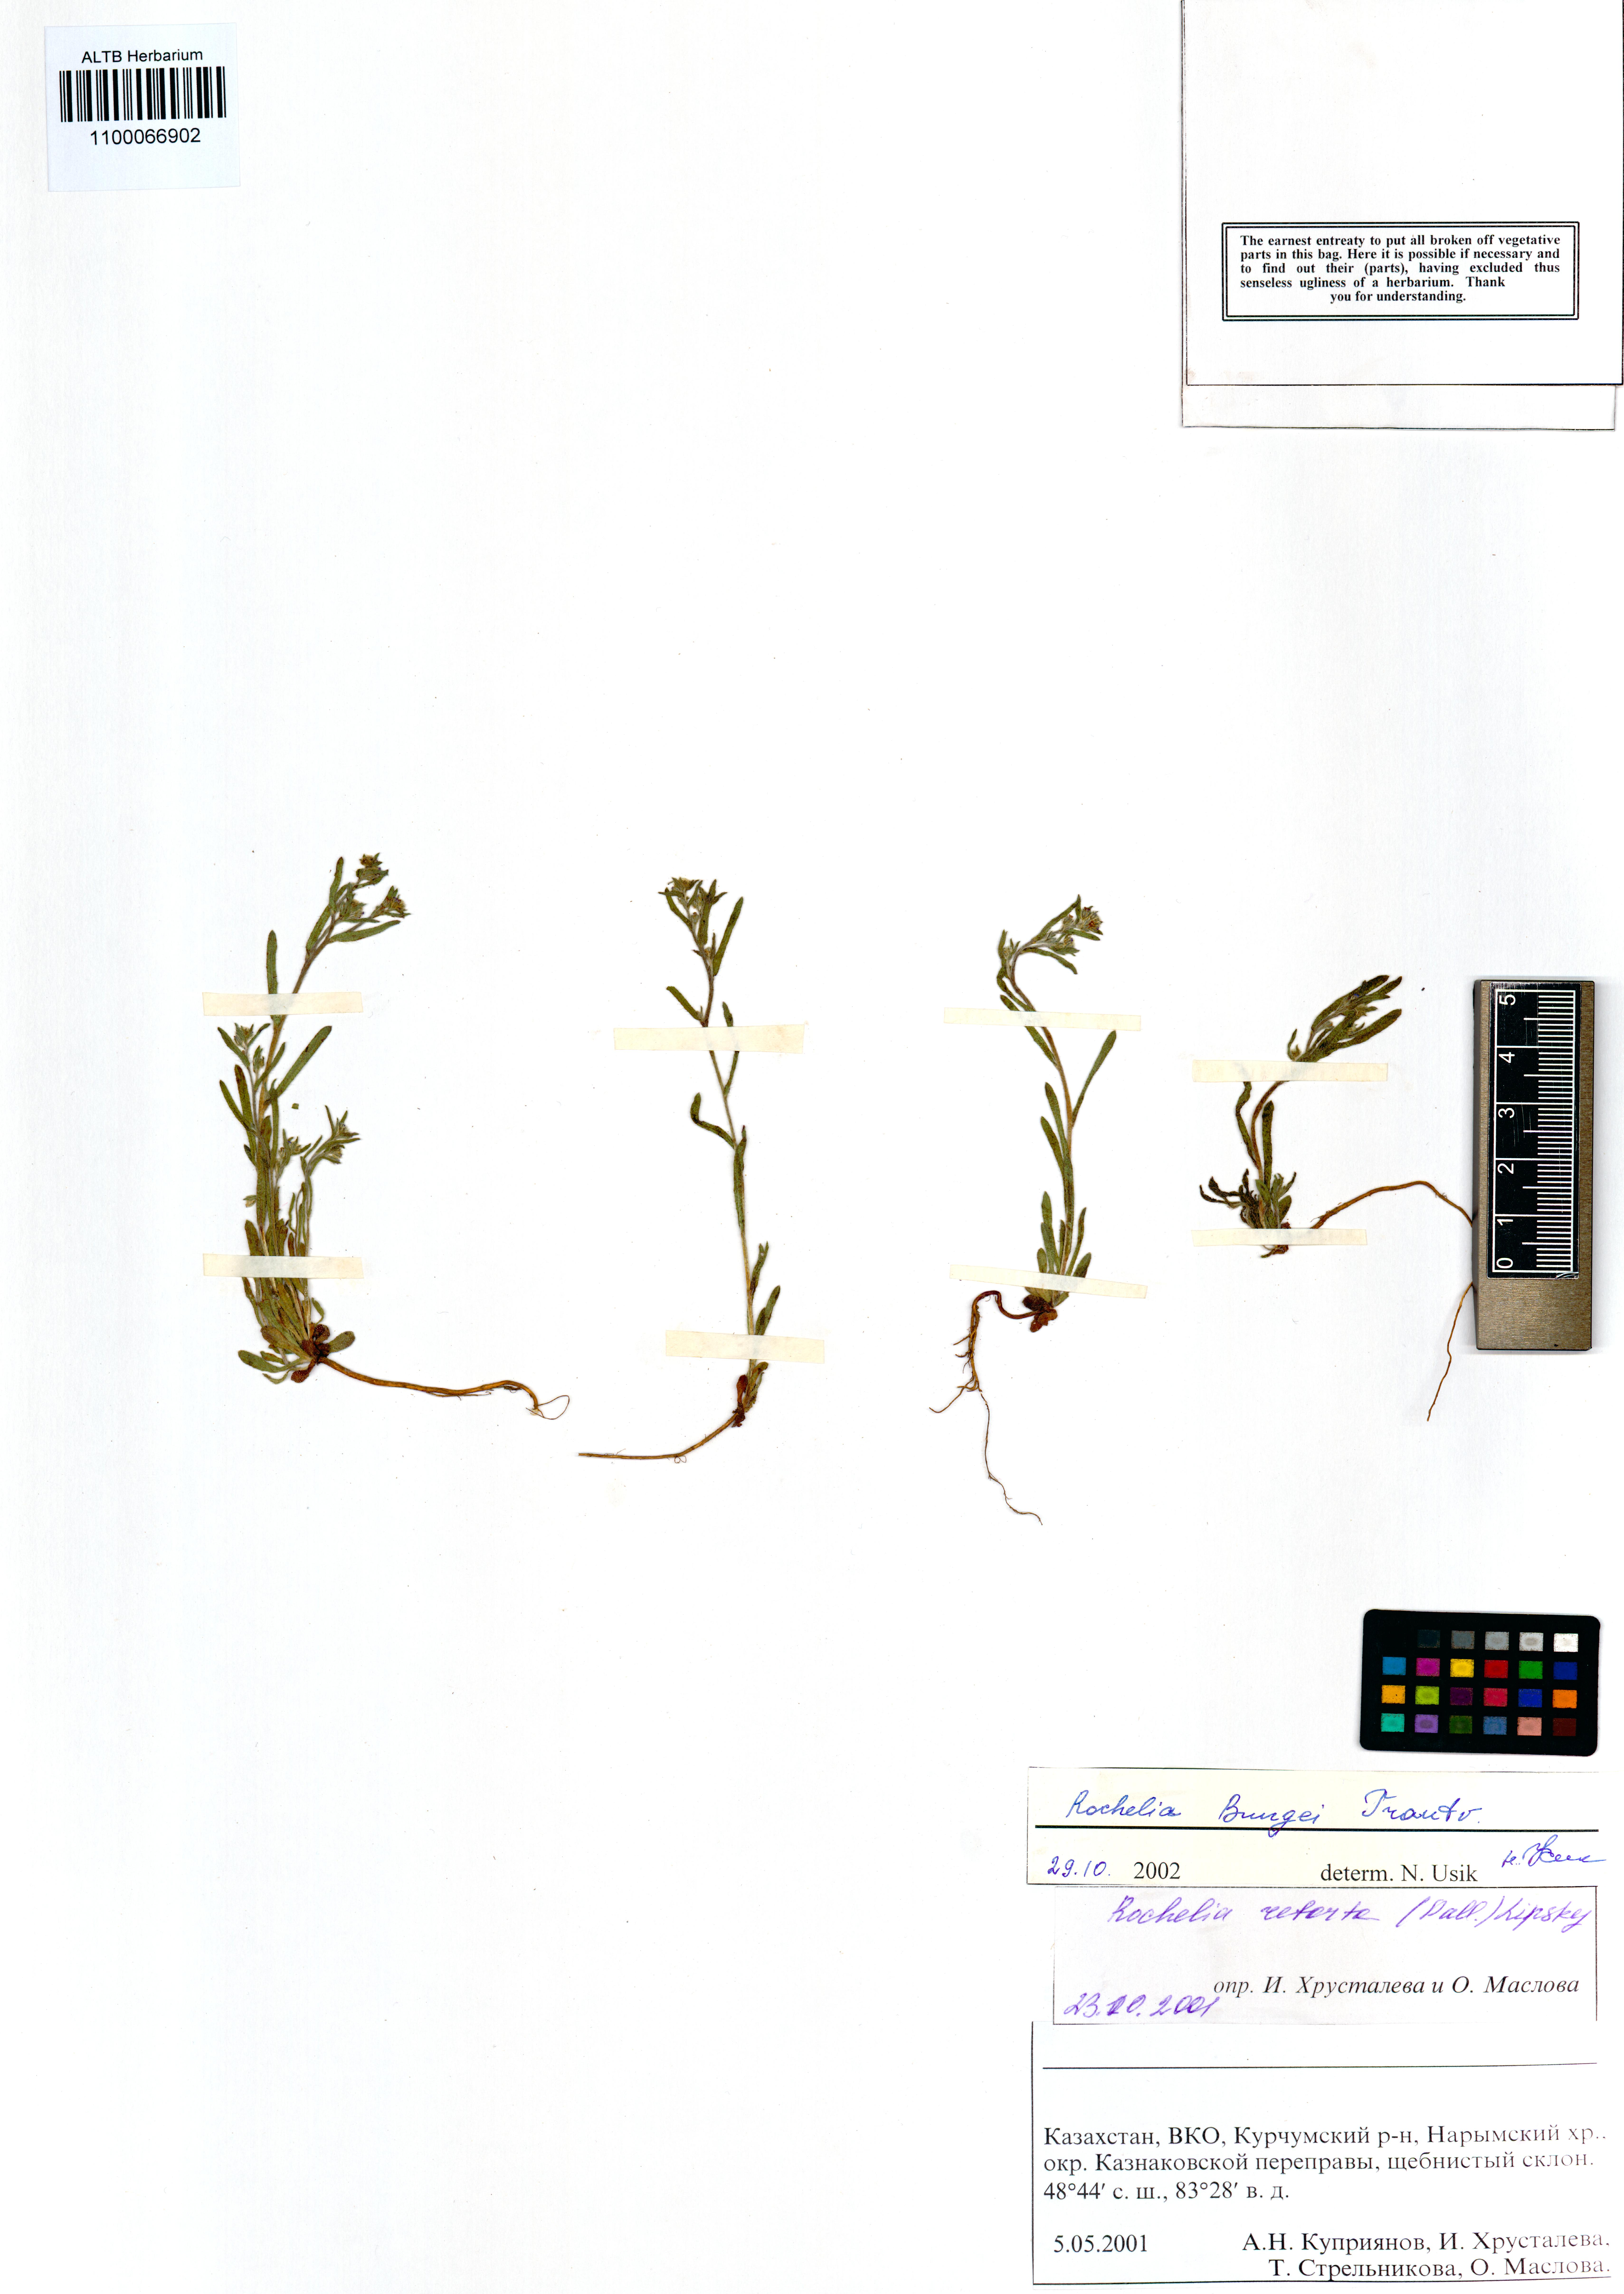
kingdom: Plantae
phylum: Tracheophyta
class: Magnoliopsida
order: Boraginales
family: Boraginaceae
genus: Rochelia
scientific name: Rochelia bungei
